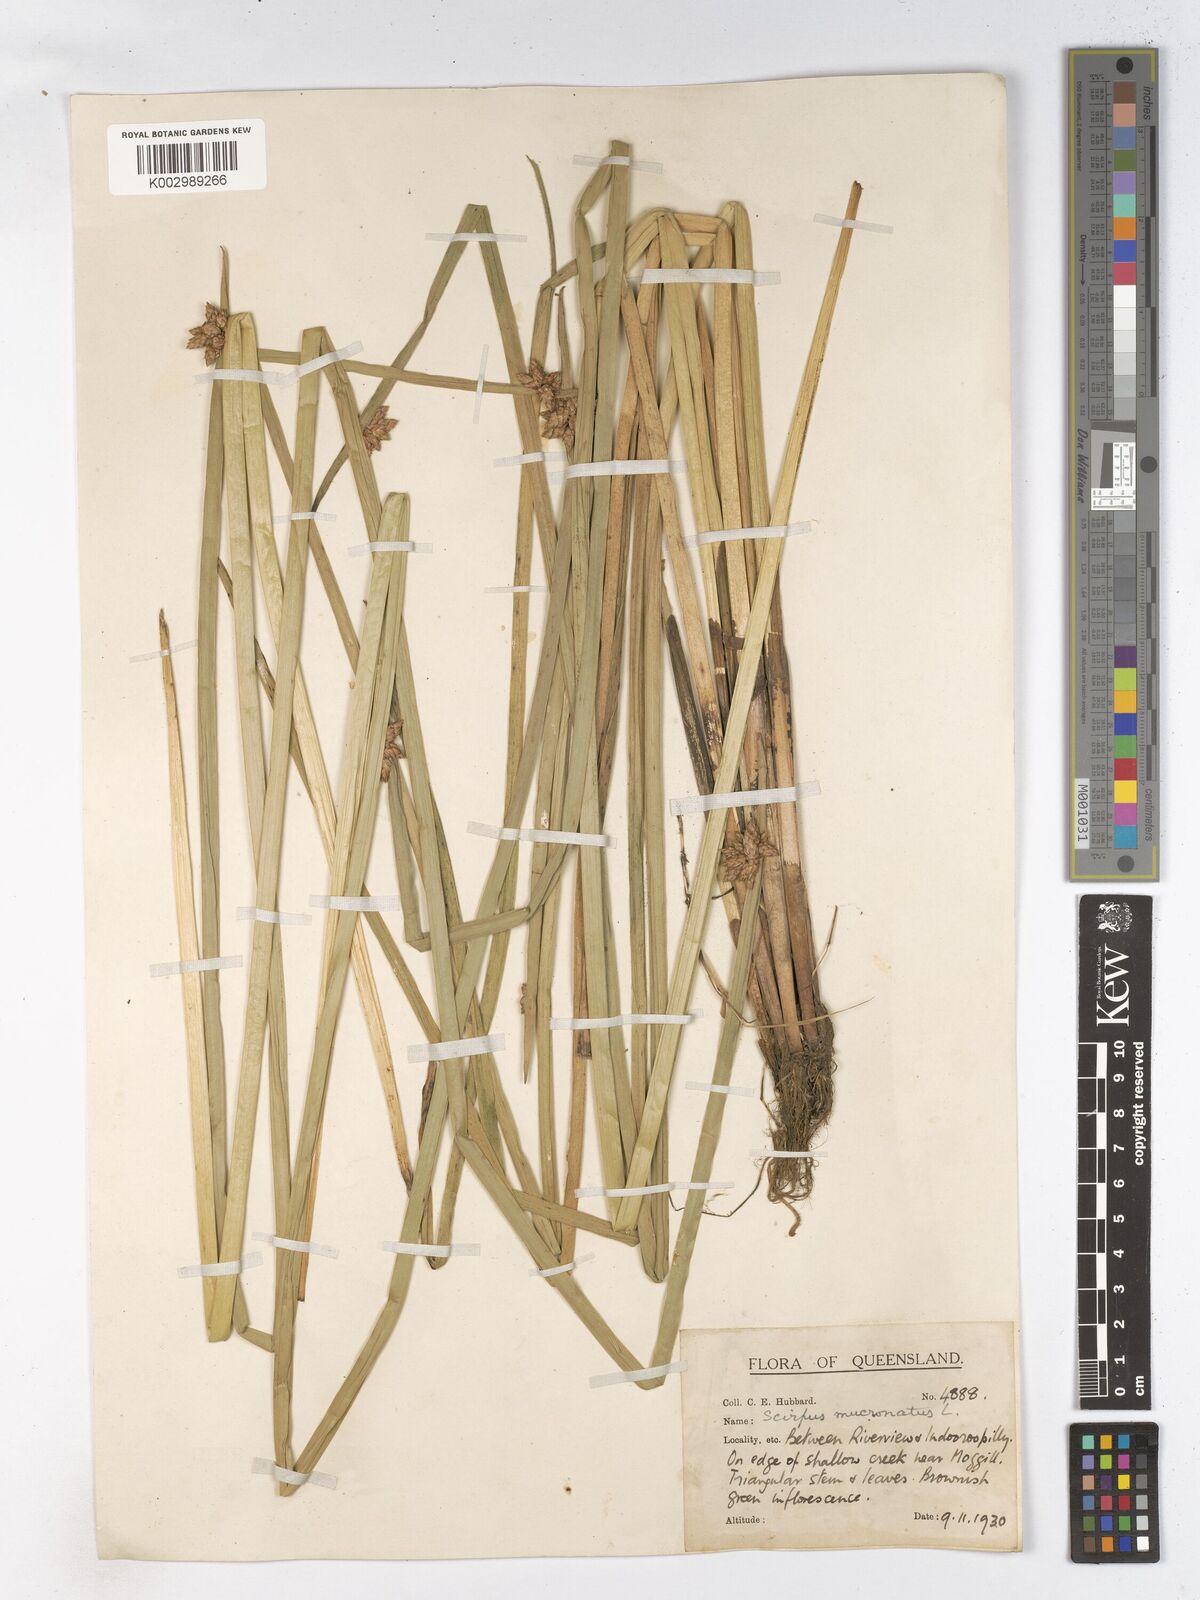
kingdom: Plantae
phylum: Tracheophyta
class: Liliopsida
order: Poales
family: Cyperaceae
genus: Schoenoplectiella
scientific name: Schoenoplectiella mucronata
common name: Bog bulrush
